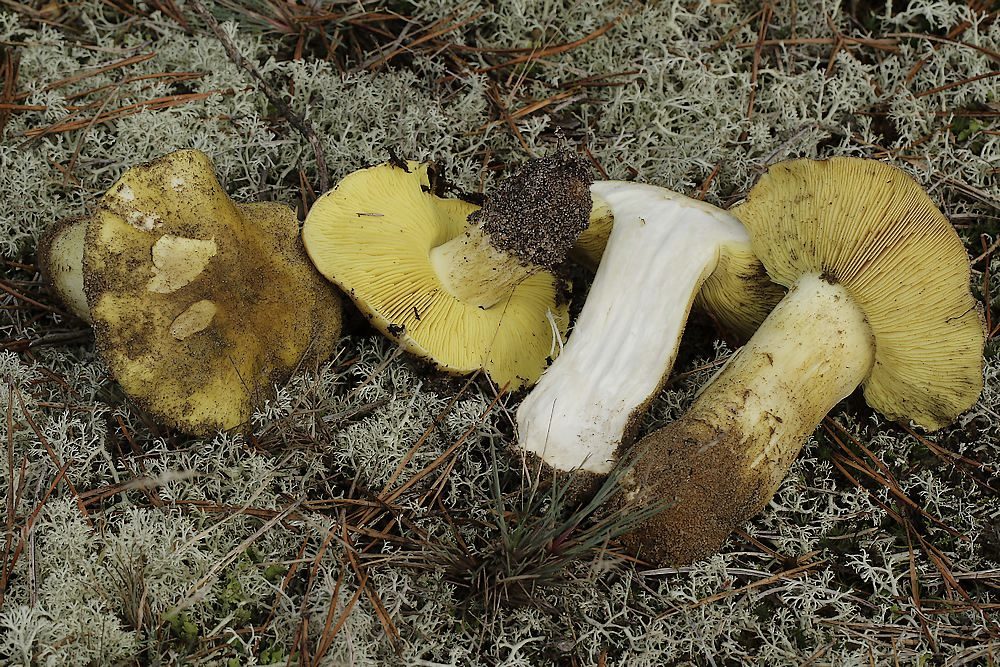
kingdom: Fungi
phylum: Basidiomycota
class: Agaricomycetes
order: Agaricales
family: Tricholomataceae
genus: Tricholoma
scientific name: Tricholoma equestre
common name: ægte ridderhat
